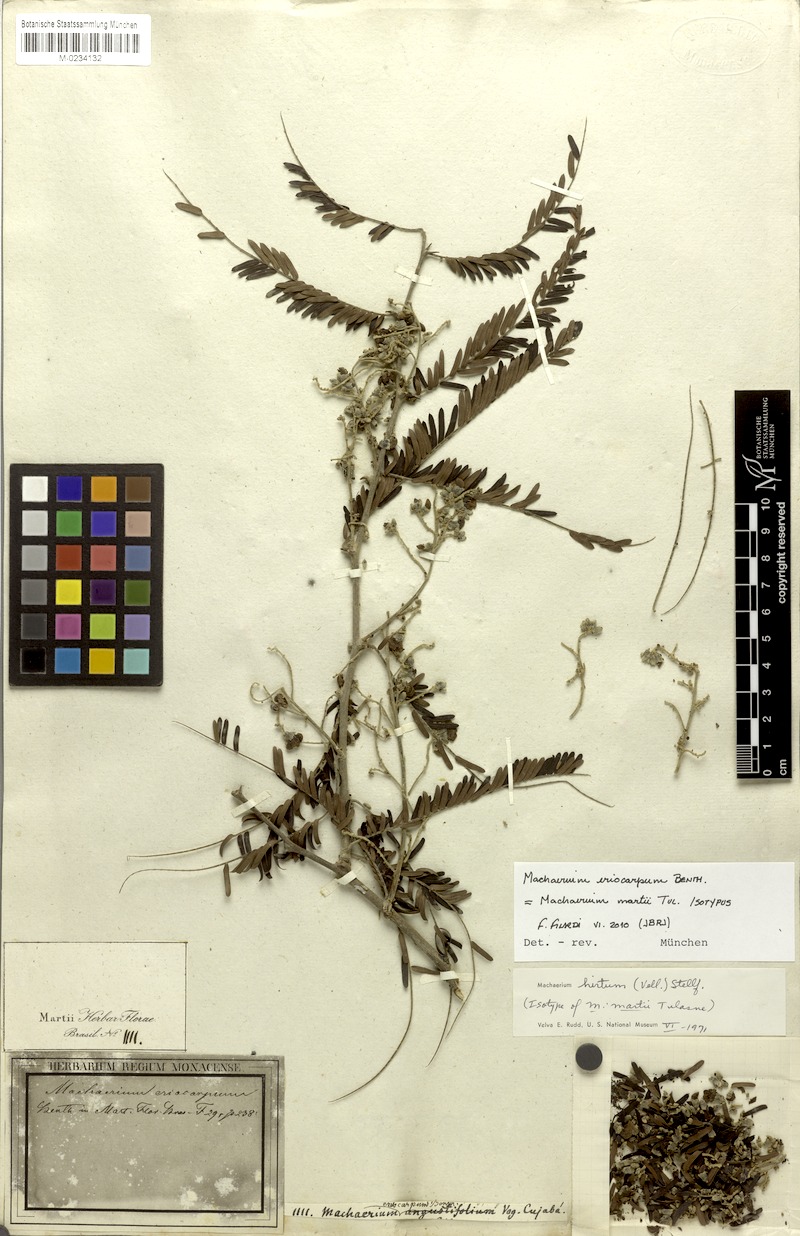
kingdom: Plantae
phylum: Tracheophyta
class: Magnoliopsida
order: Fabales
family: Fabaceae
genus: Machaerium
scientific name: Machaerium eriocarpum
